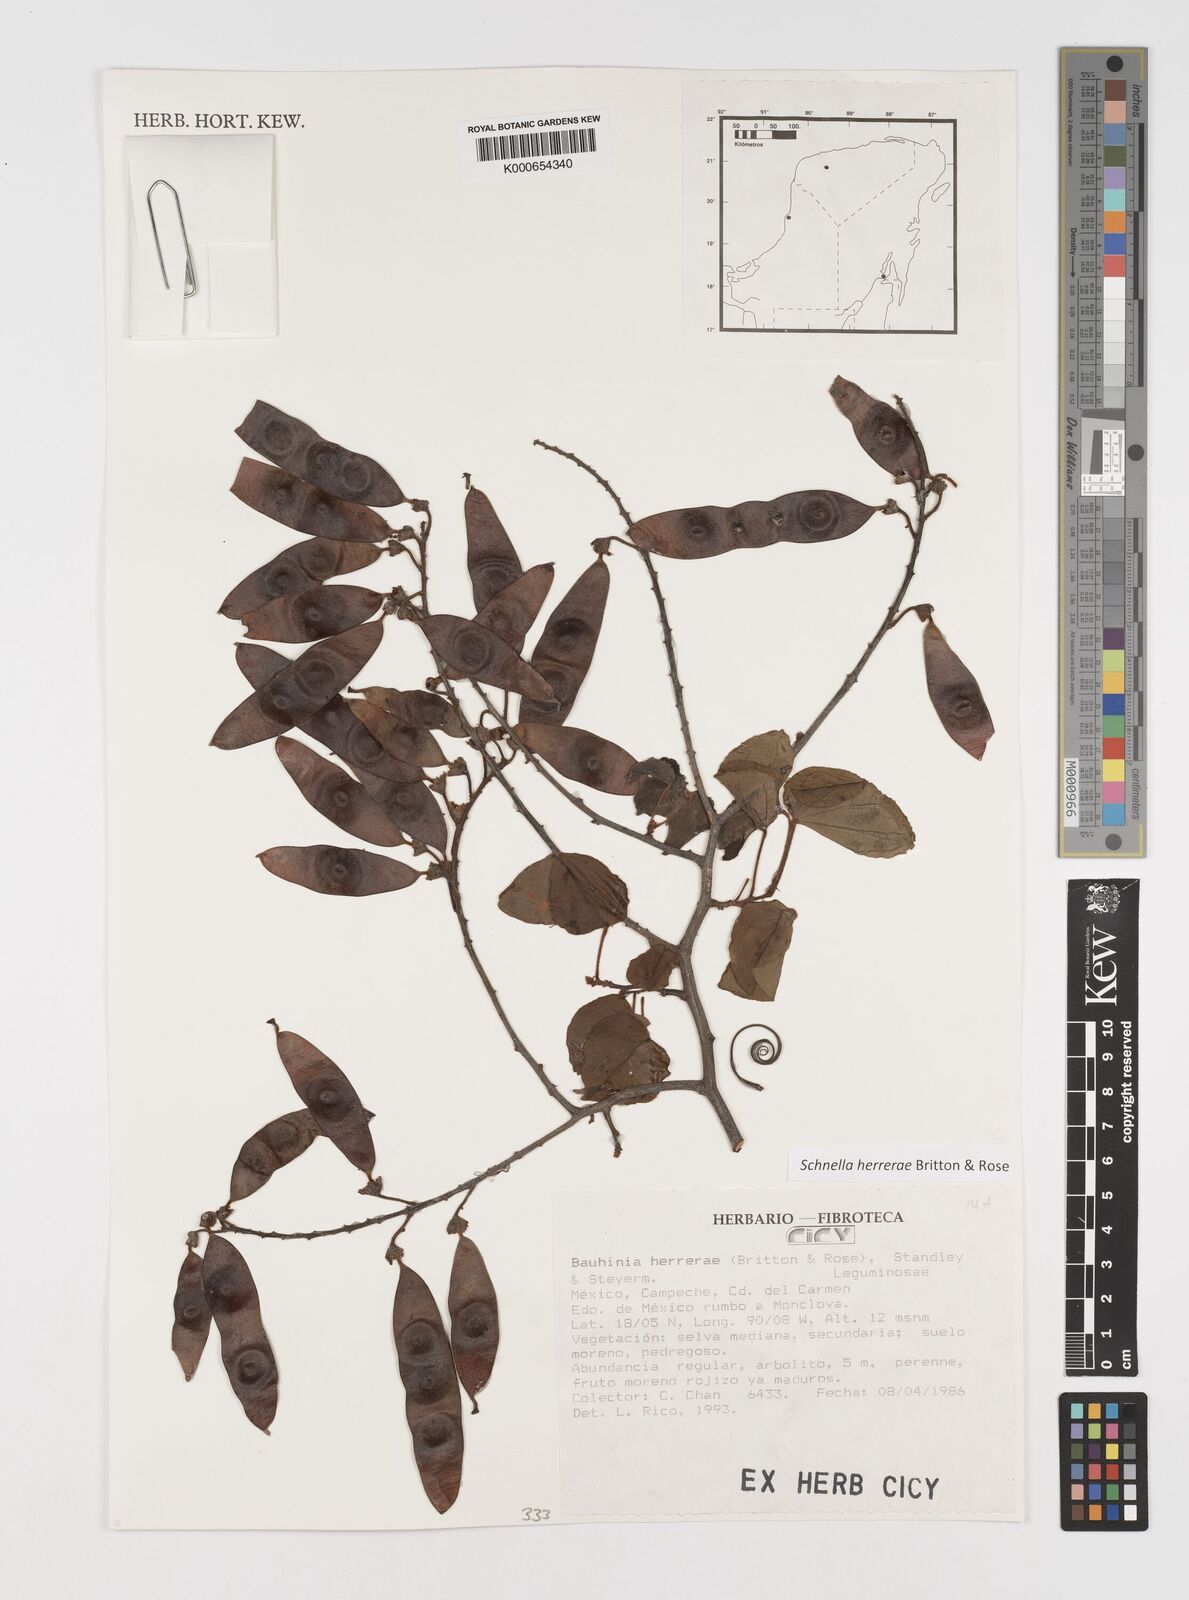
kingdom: Plantae
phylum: Tracheophyta
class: Magnoliopsida
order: Fabales
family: Fabaceae
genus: Schnella
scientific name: Schnella herrerae
